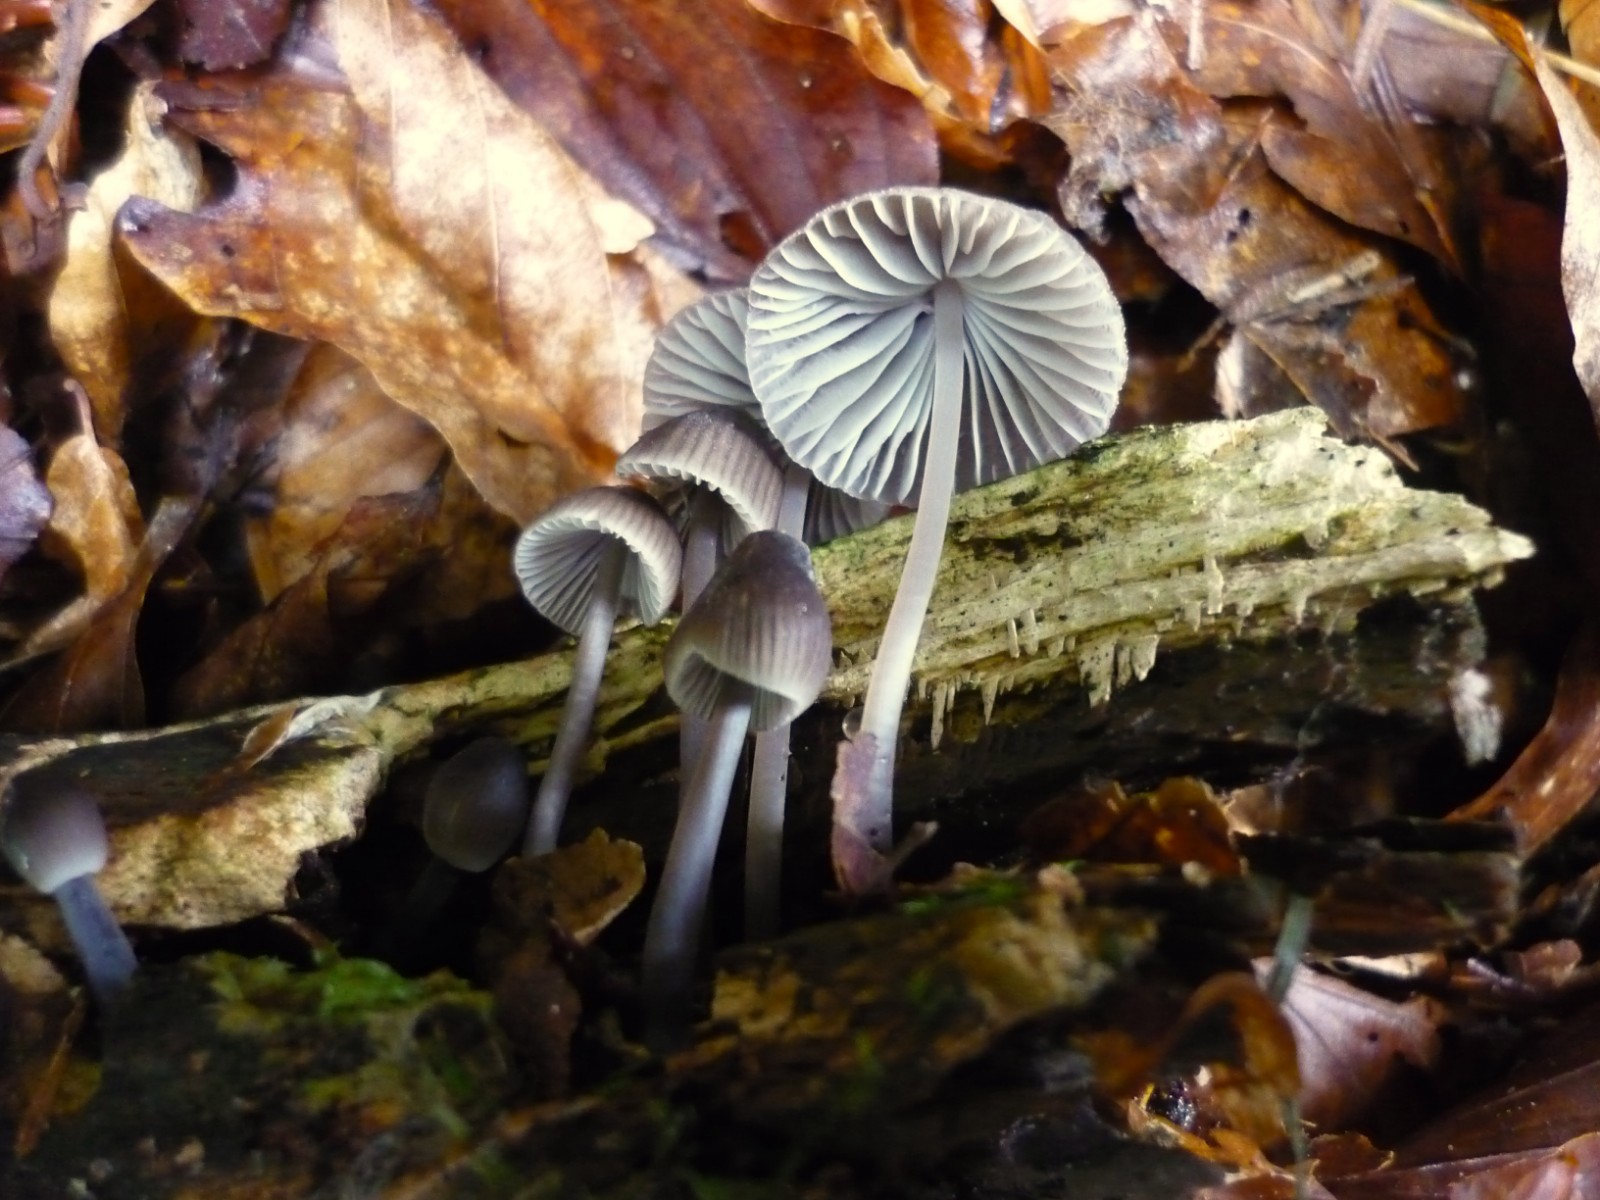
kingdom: Fungi
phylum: Basidiomycota
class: Agaricomycetes
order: Agaricales
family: Mycenaceae
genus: Mycena
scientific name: Mycena abramsii
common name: sommer-huesvamp
